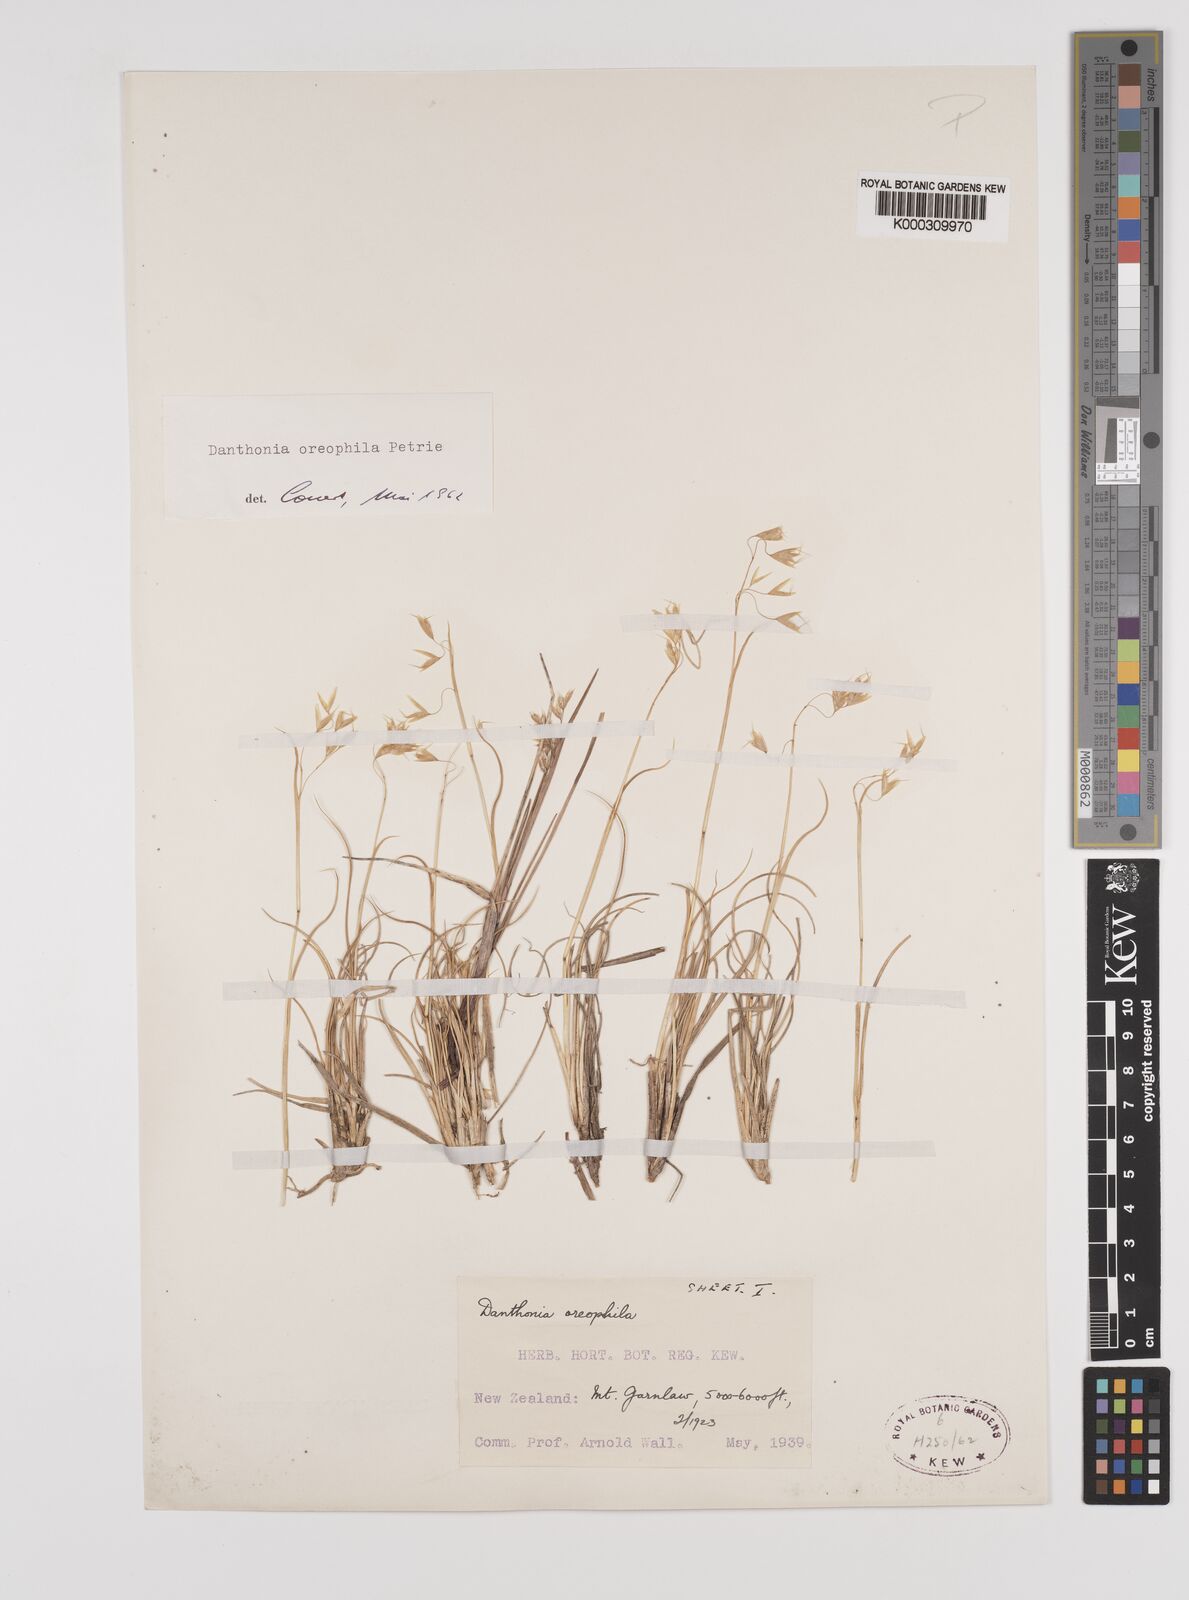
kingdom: Plantae
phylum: Tracheophyta
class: Liliopsida
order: Poales
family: Poaceae
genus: Chionochloa
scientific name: Chionochloa oreophila
